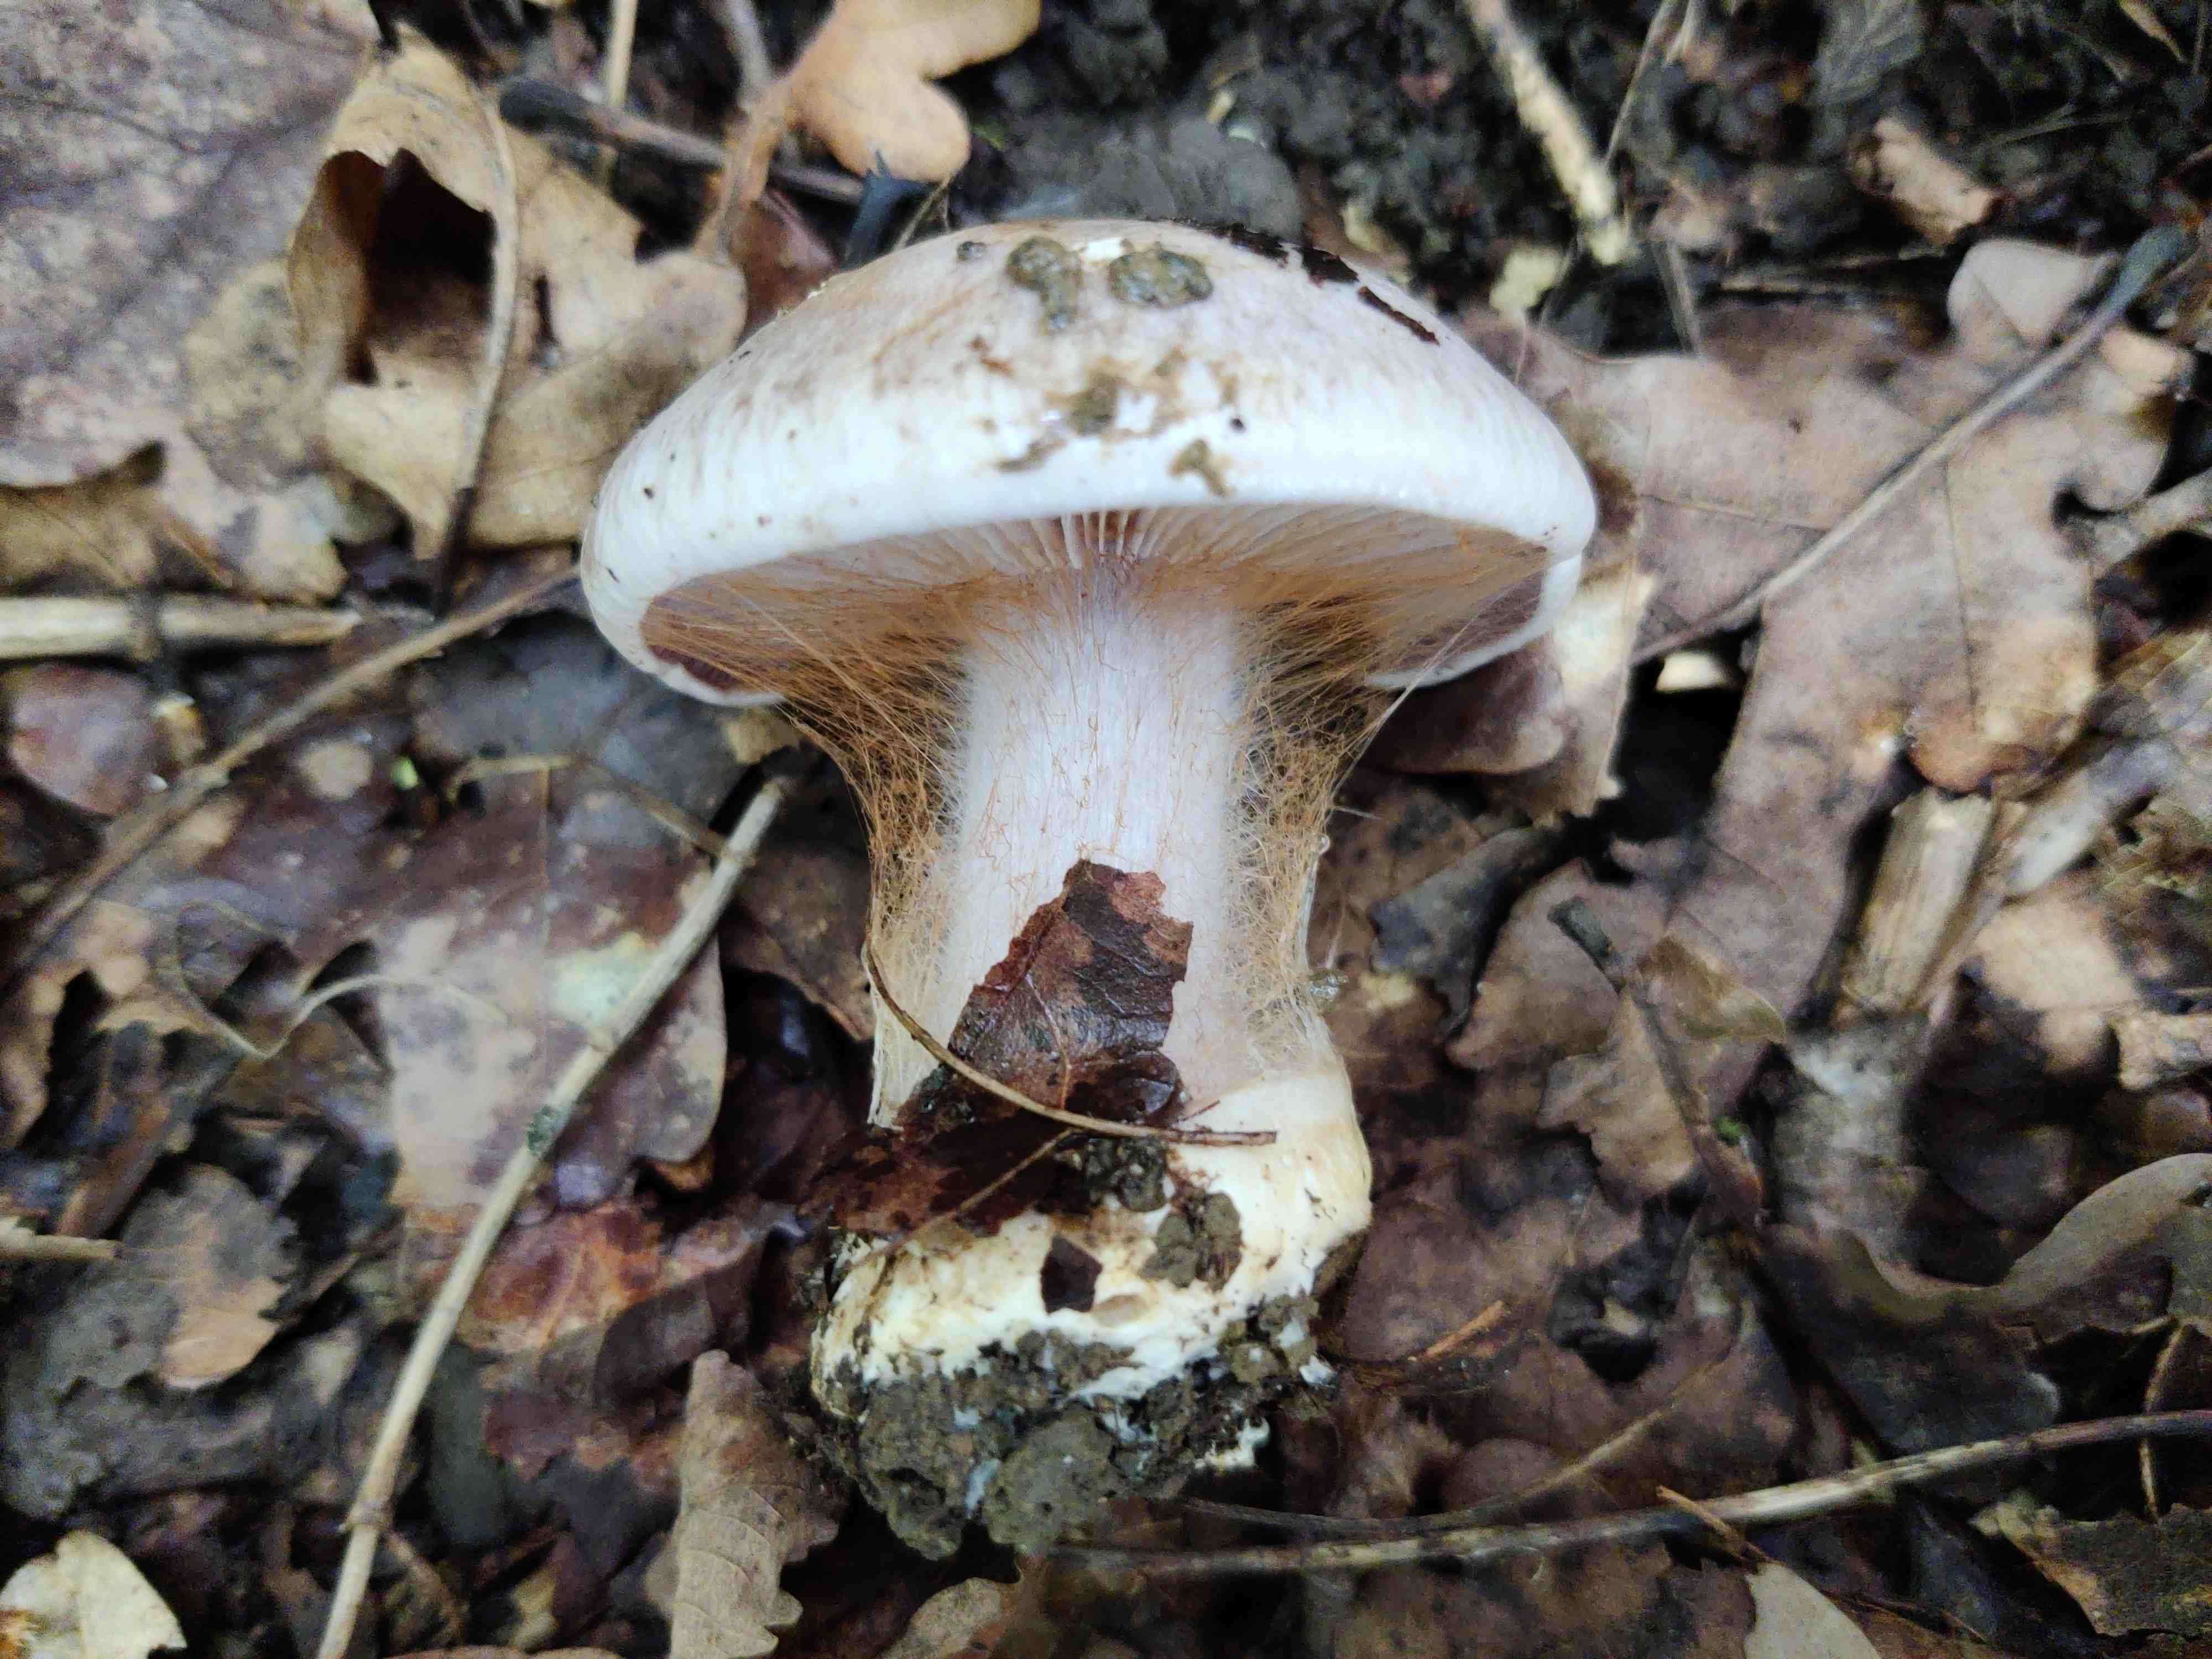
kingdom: Fungi
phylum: Basidiomycota
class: Agaricomycetes
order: Agaricales
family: Cortinariaceae
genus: Phlegmacium
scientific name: Phlegmacium coerulescentium
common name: gråbladet slørhat
